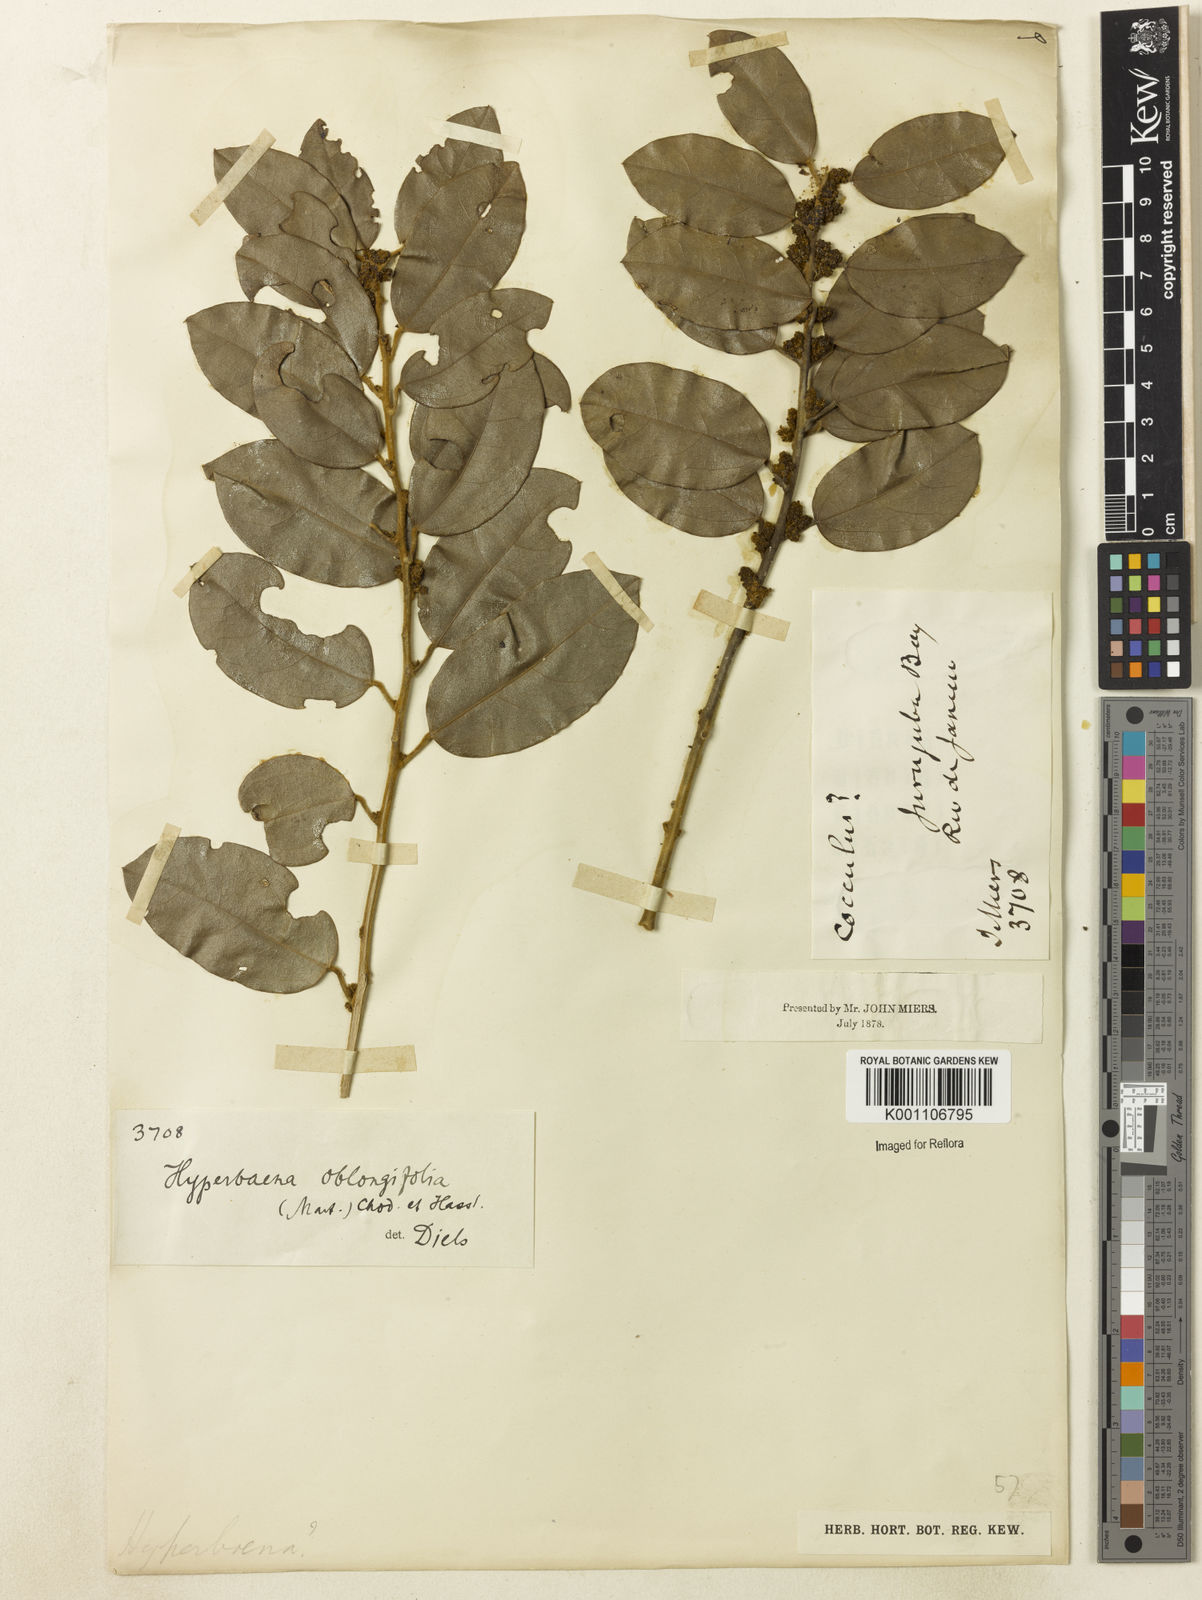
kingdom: Plantae
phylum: Tracheophyta
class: Magnoliopsida
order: Ranunculales
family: Menispermaceae
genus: Hyperbaena
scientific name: Hyperbaena hassleri
